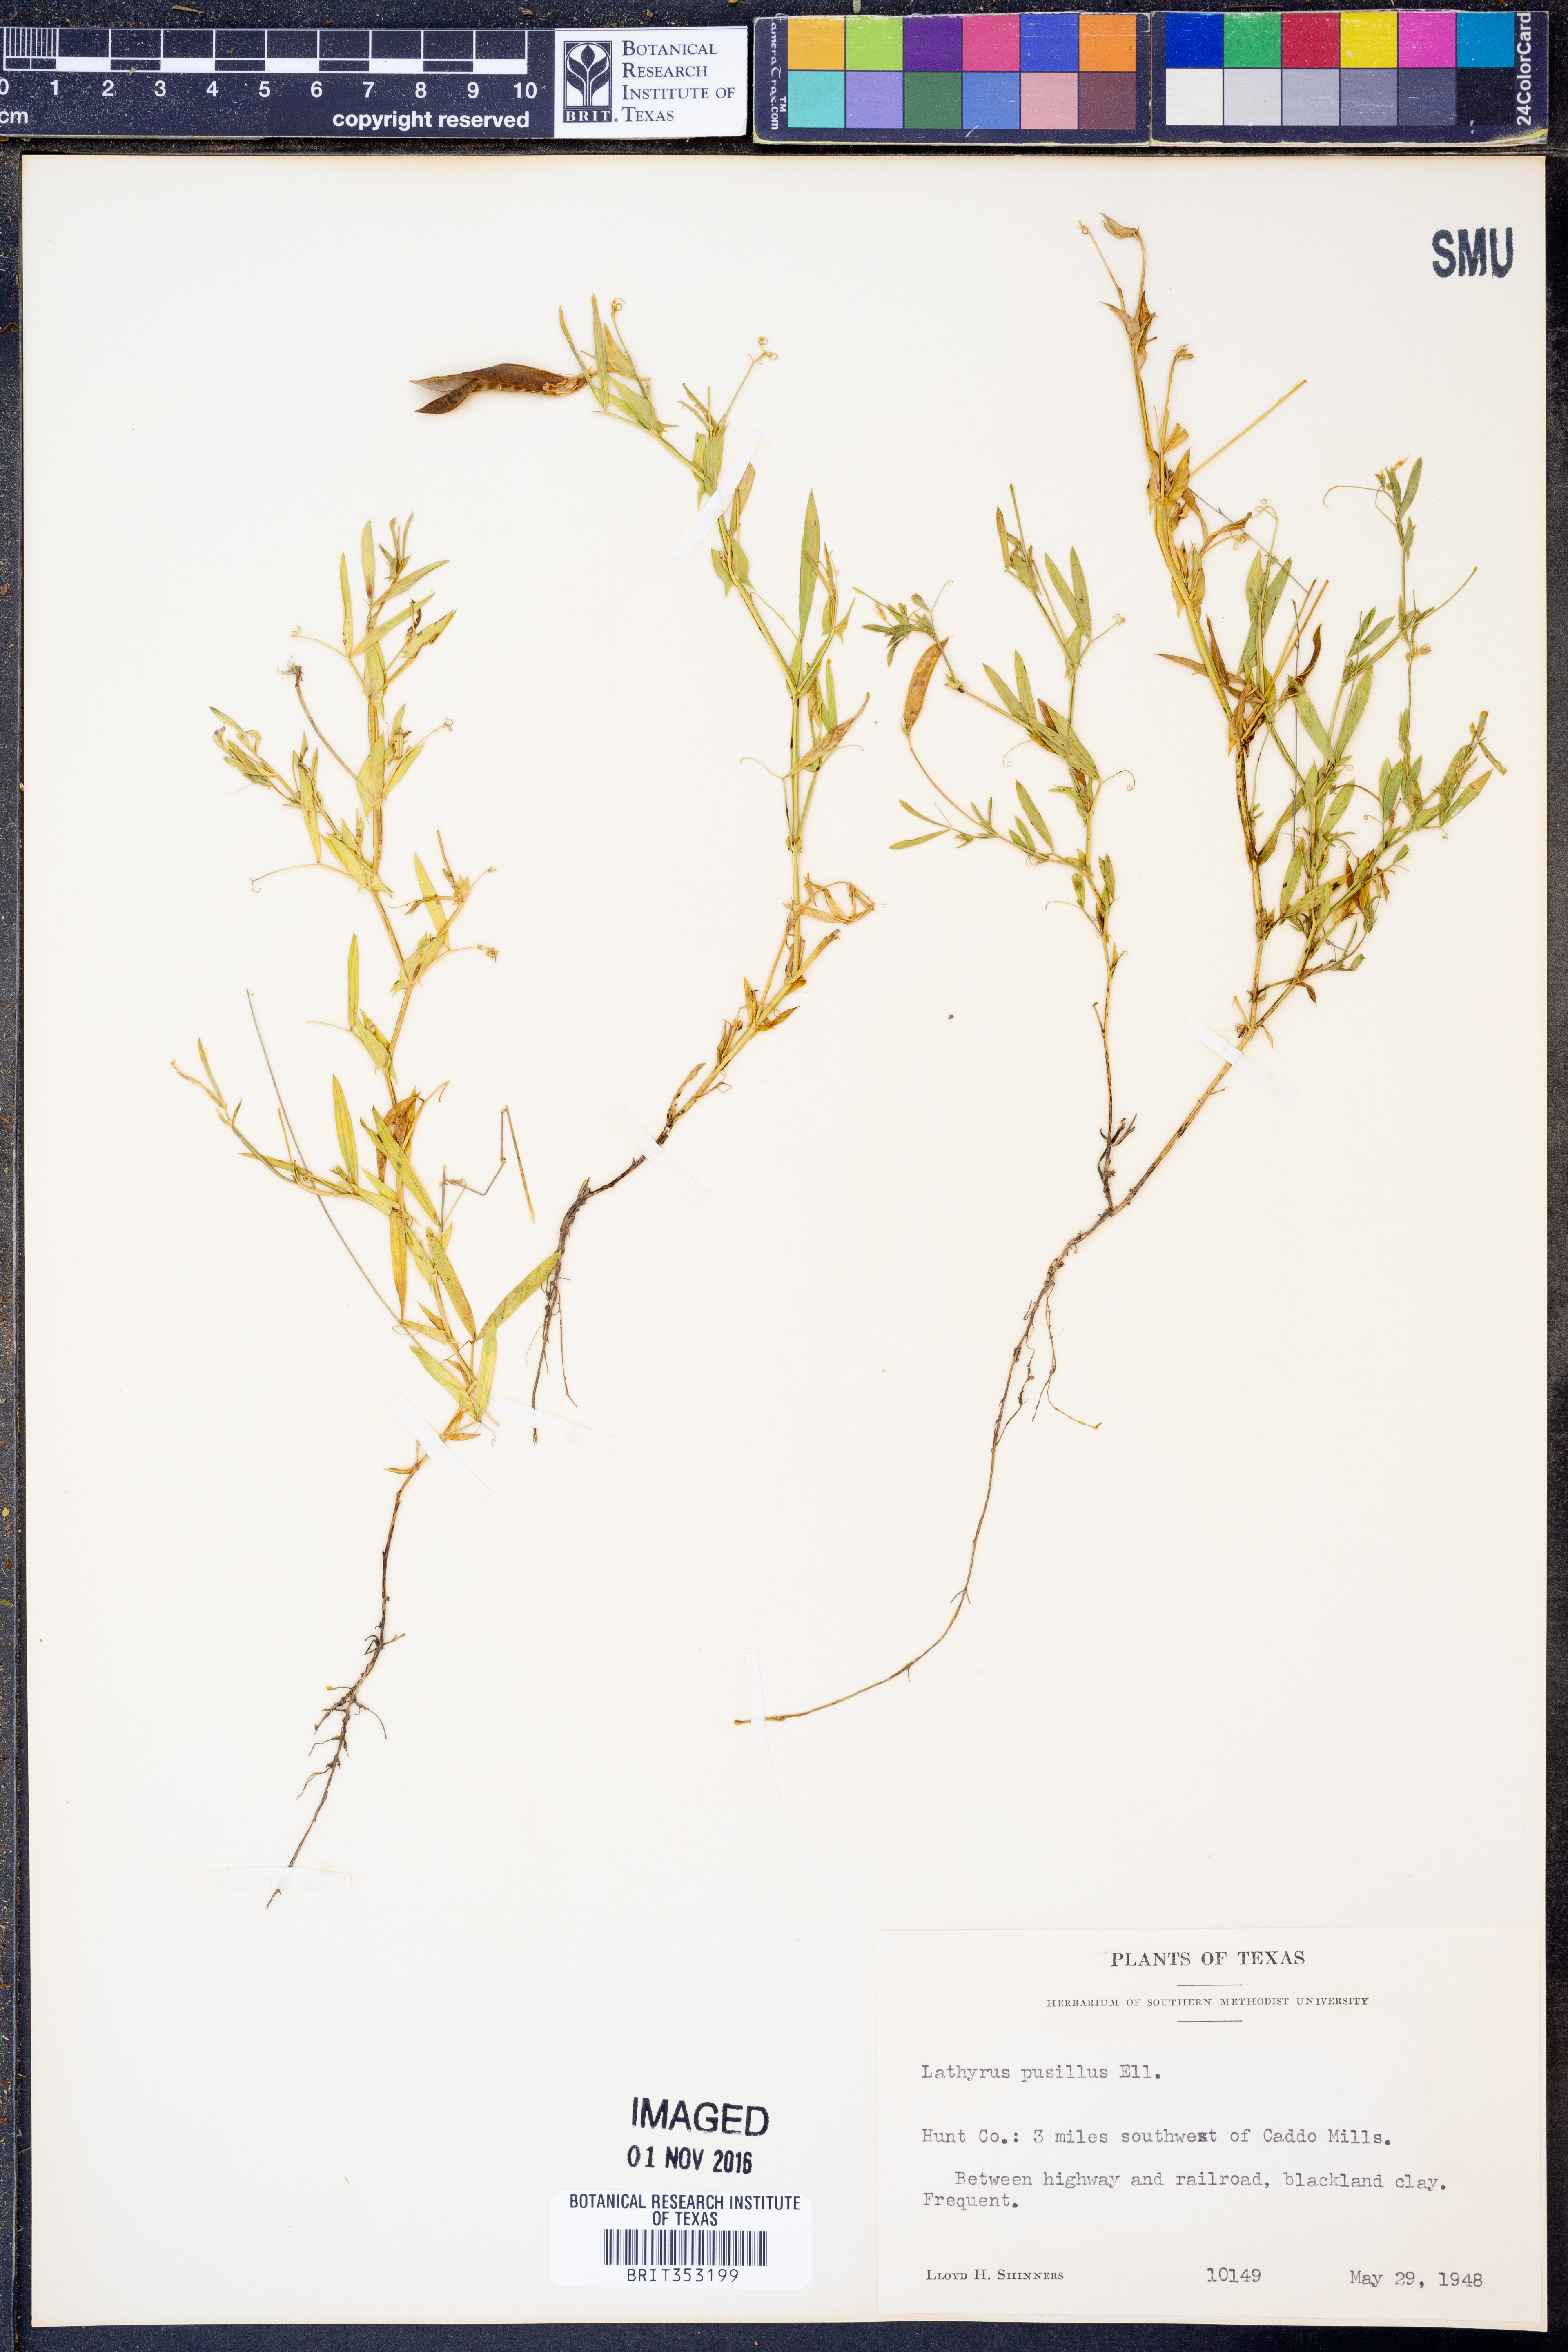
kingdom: Plantae
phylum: Tracheophyta
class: Magnoliopsida
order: Fabales
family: Fabaceae
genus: Lathyrus
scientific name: Lathyrus pusillus
